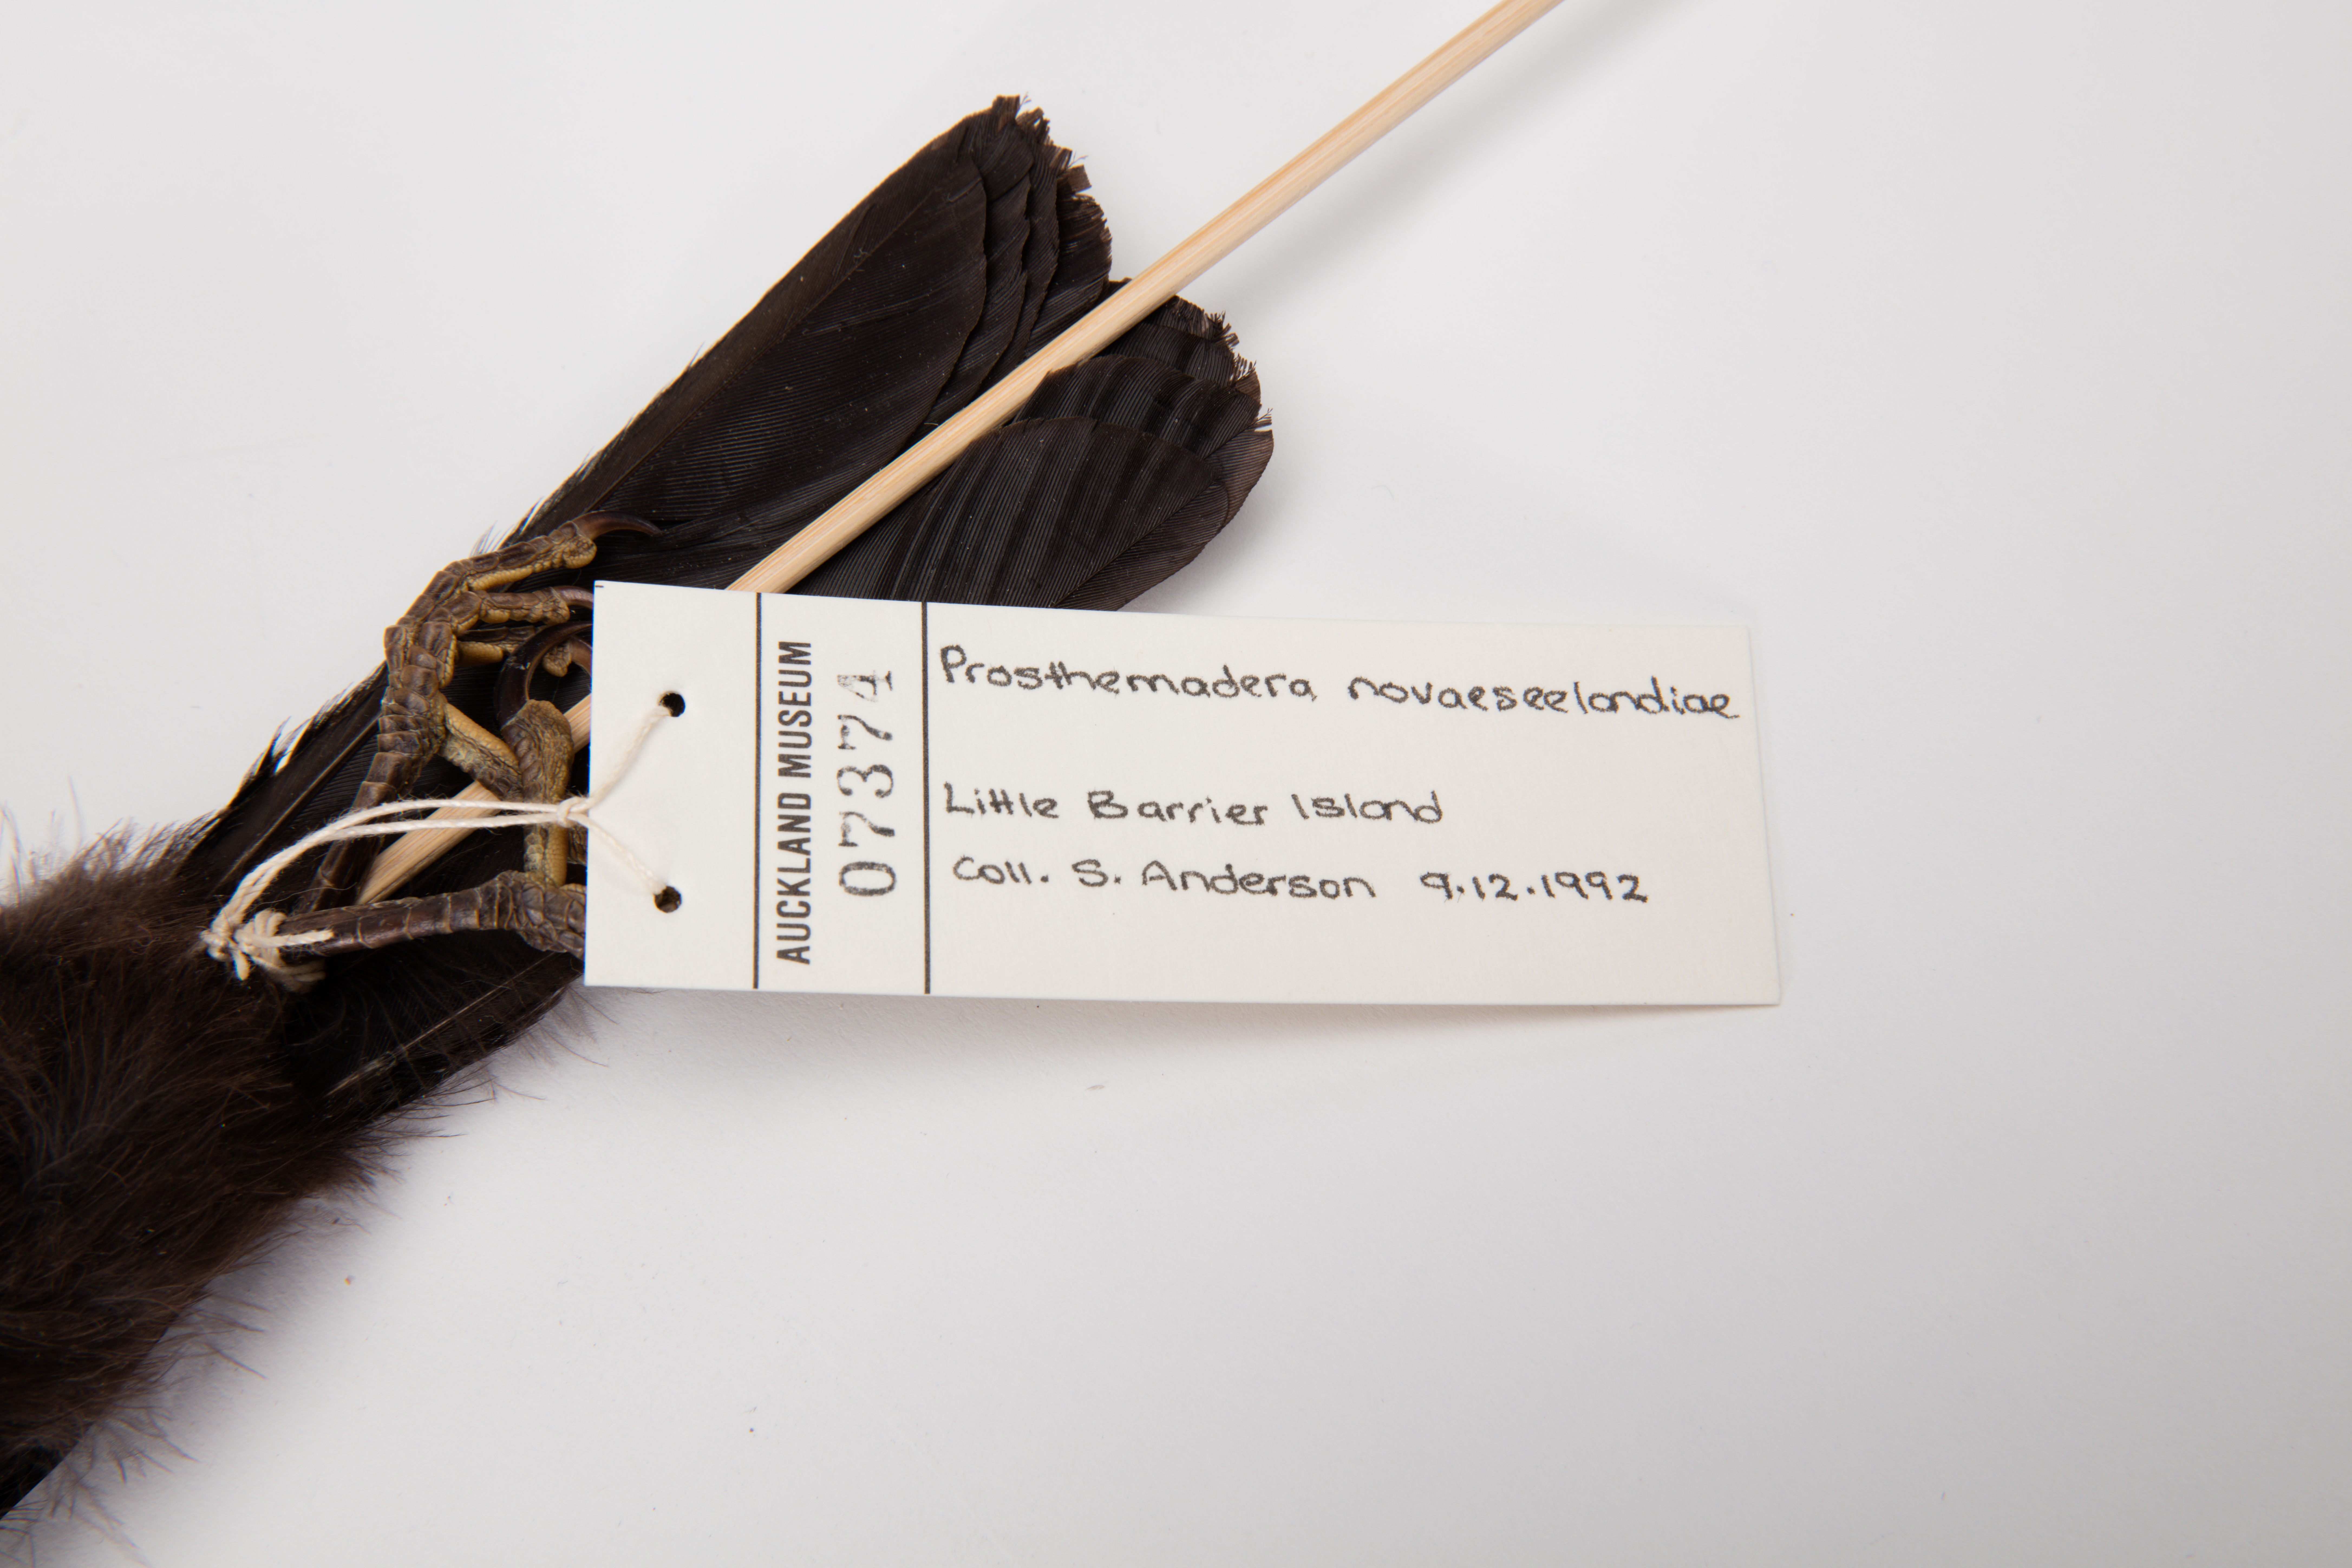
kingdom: Animalia
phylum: Chordata
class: Aves
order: Passeriformes
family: Meliphagidae
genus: Prosthemadera
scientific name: Prosthemadera novaeseelandiae
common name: Tui
